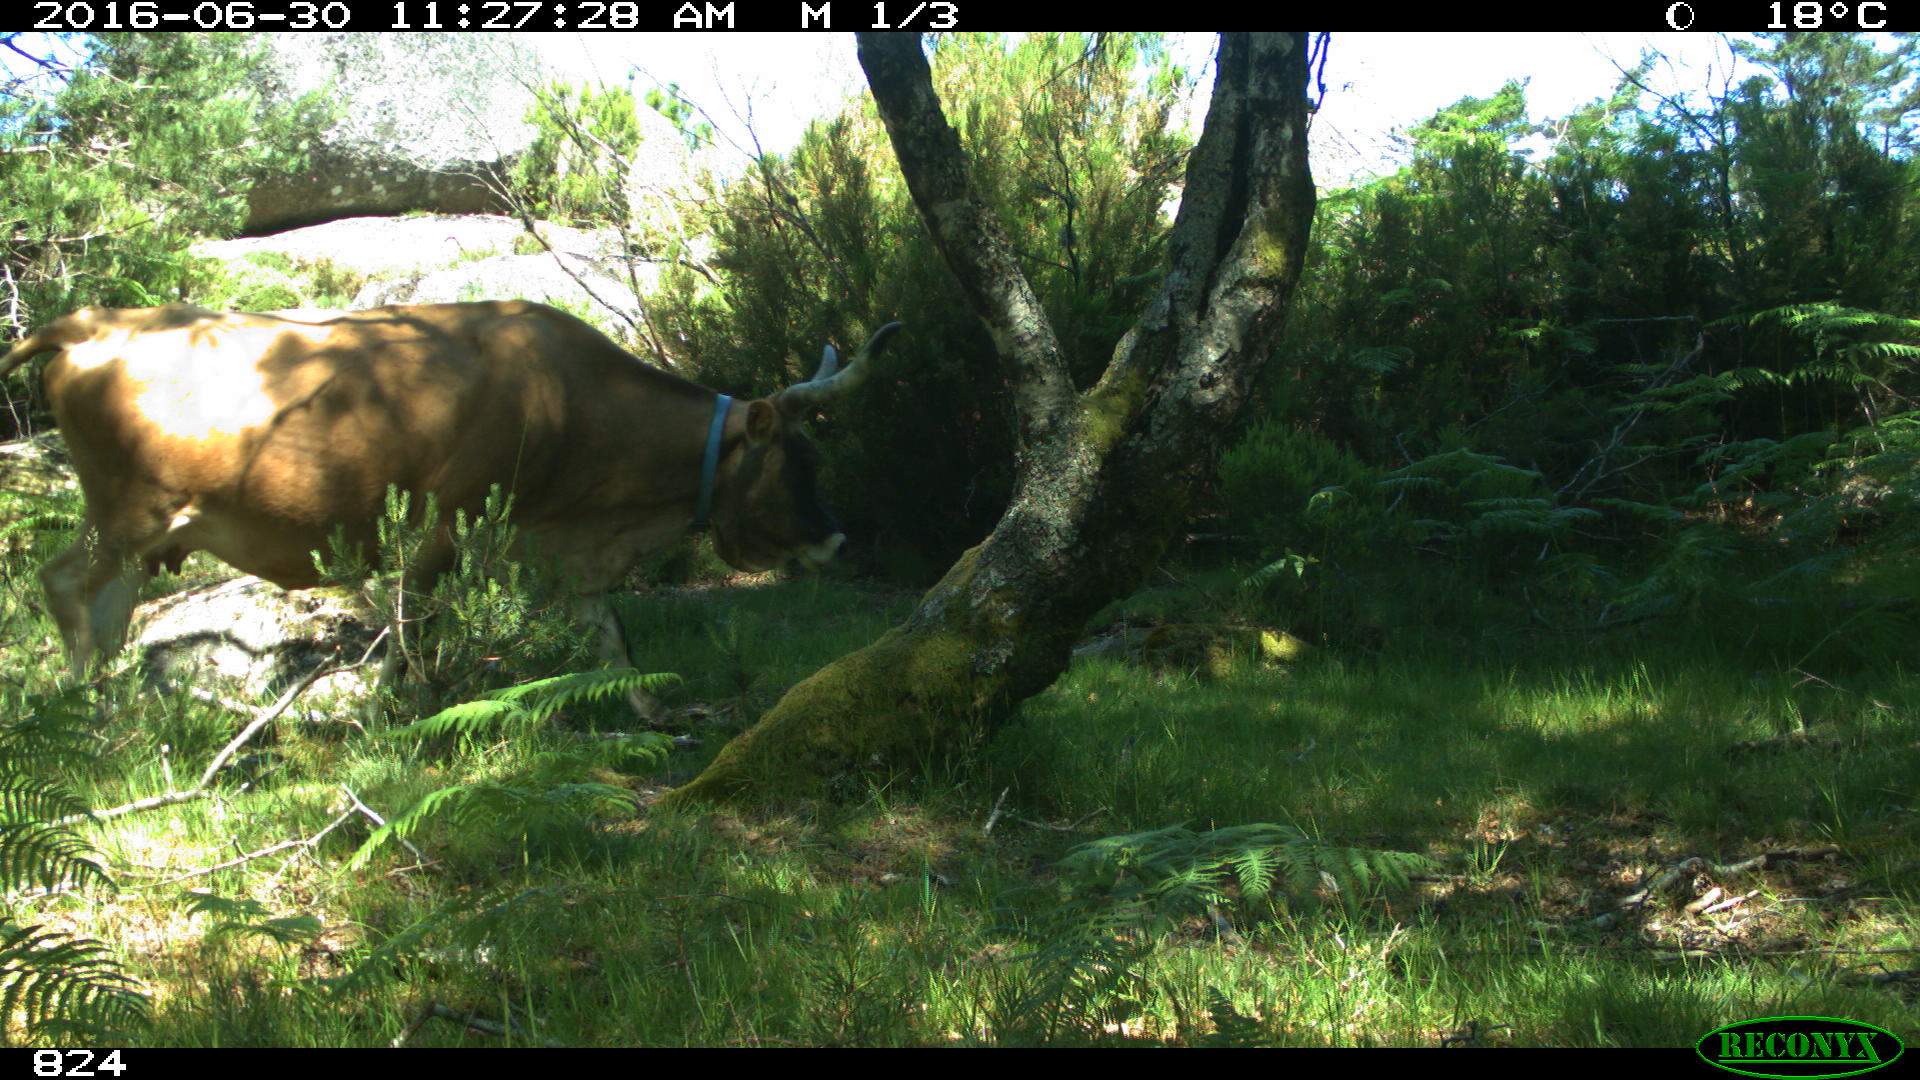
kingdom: Animalia
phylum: Chordata
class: Mammalia
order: Artiodactyla
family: Bovidae
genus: Bos
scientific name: Bos taurus
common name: Domesticated cattle
